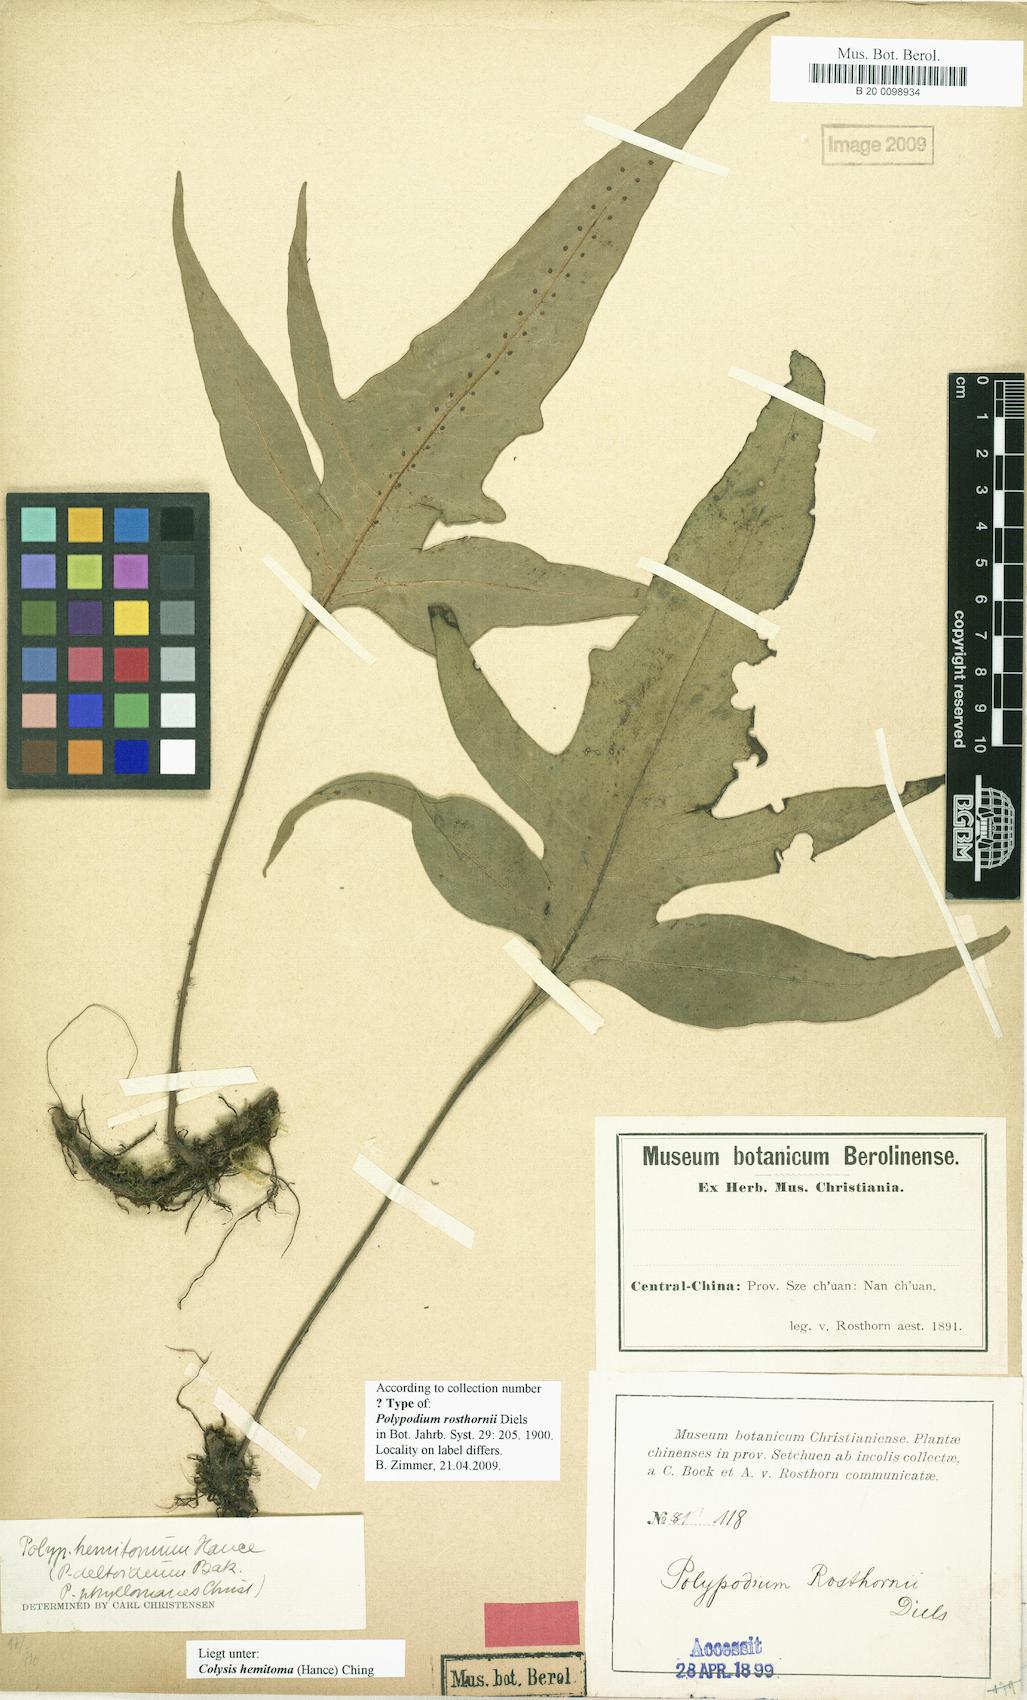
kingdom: Plantae
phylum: Tracheophyta
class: Polypodiopsida
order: Polypodiales
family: Polypodiaceae
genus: Lepisorus
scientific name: Lepisorus ovatus
